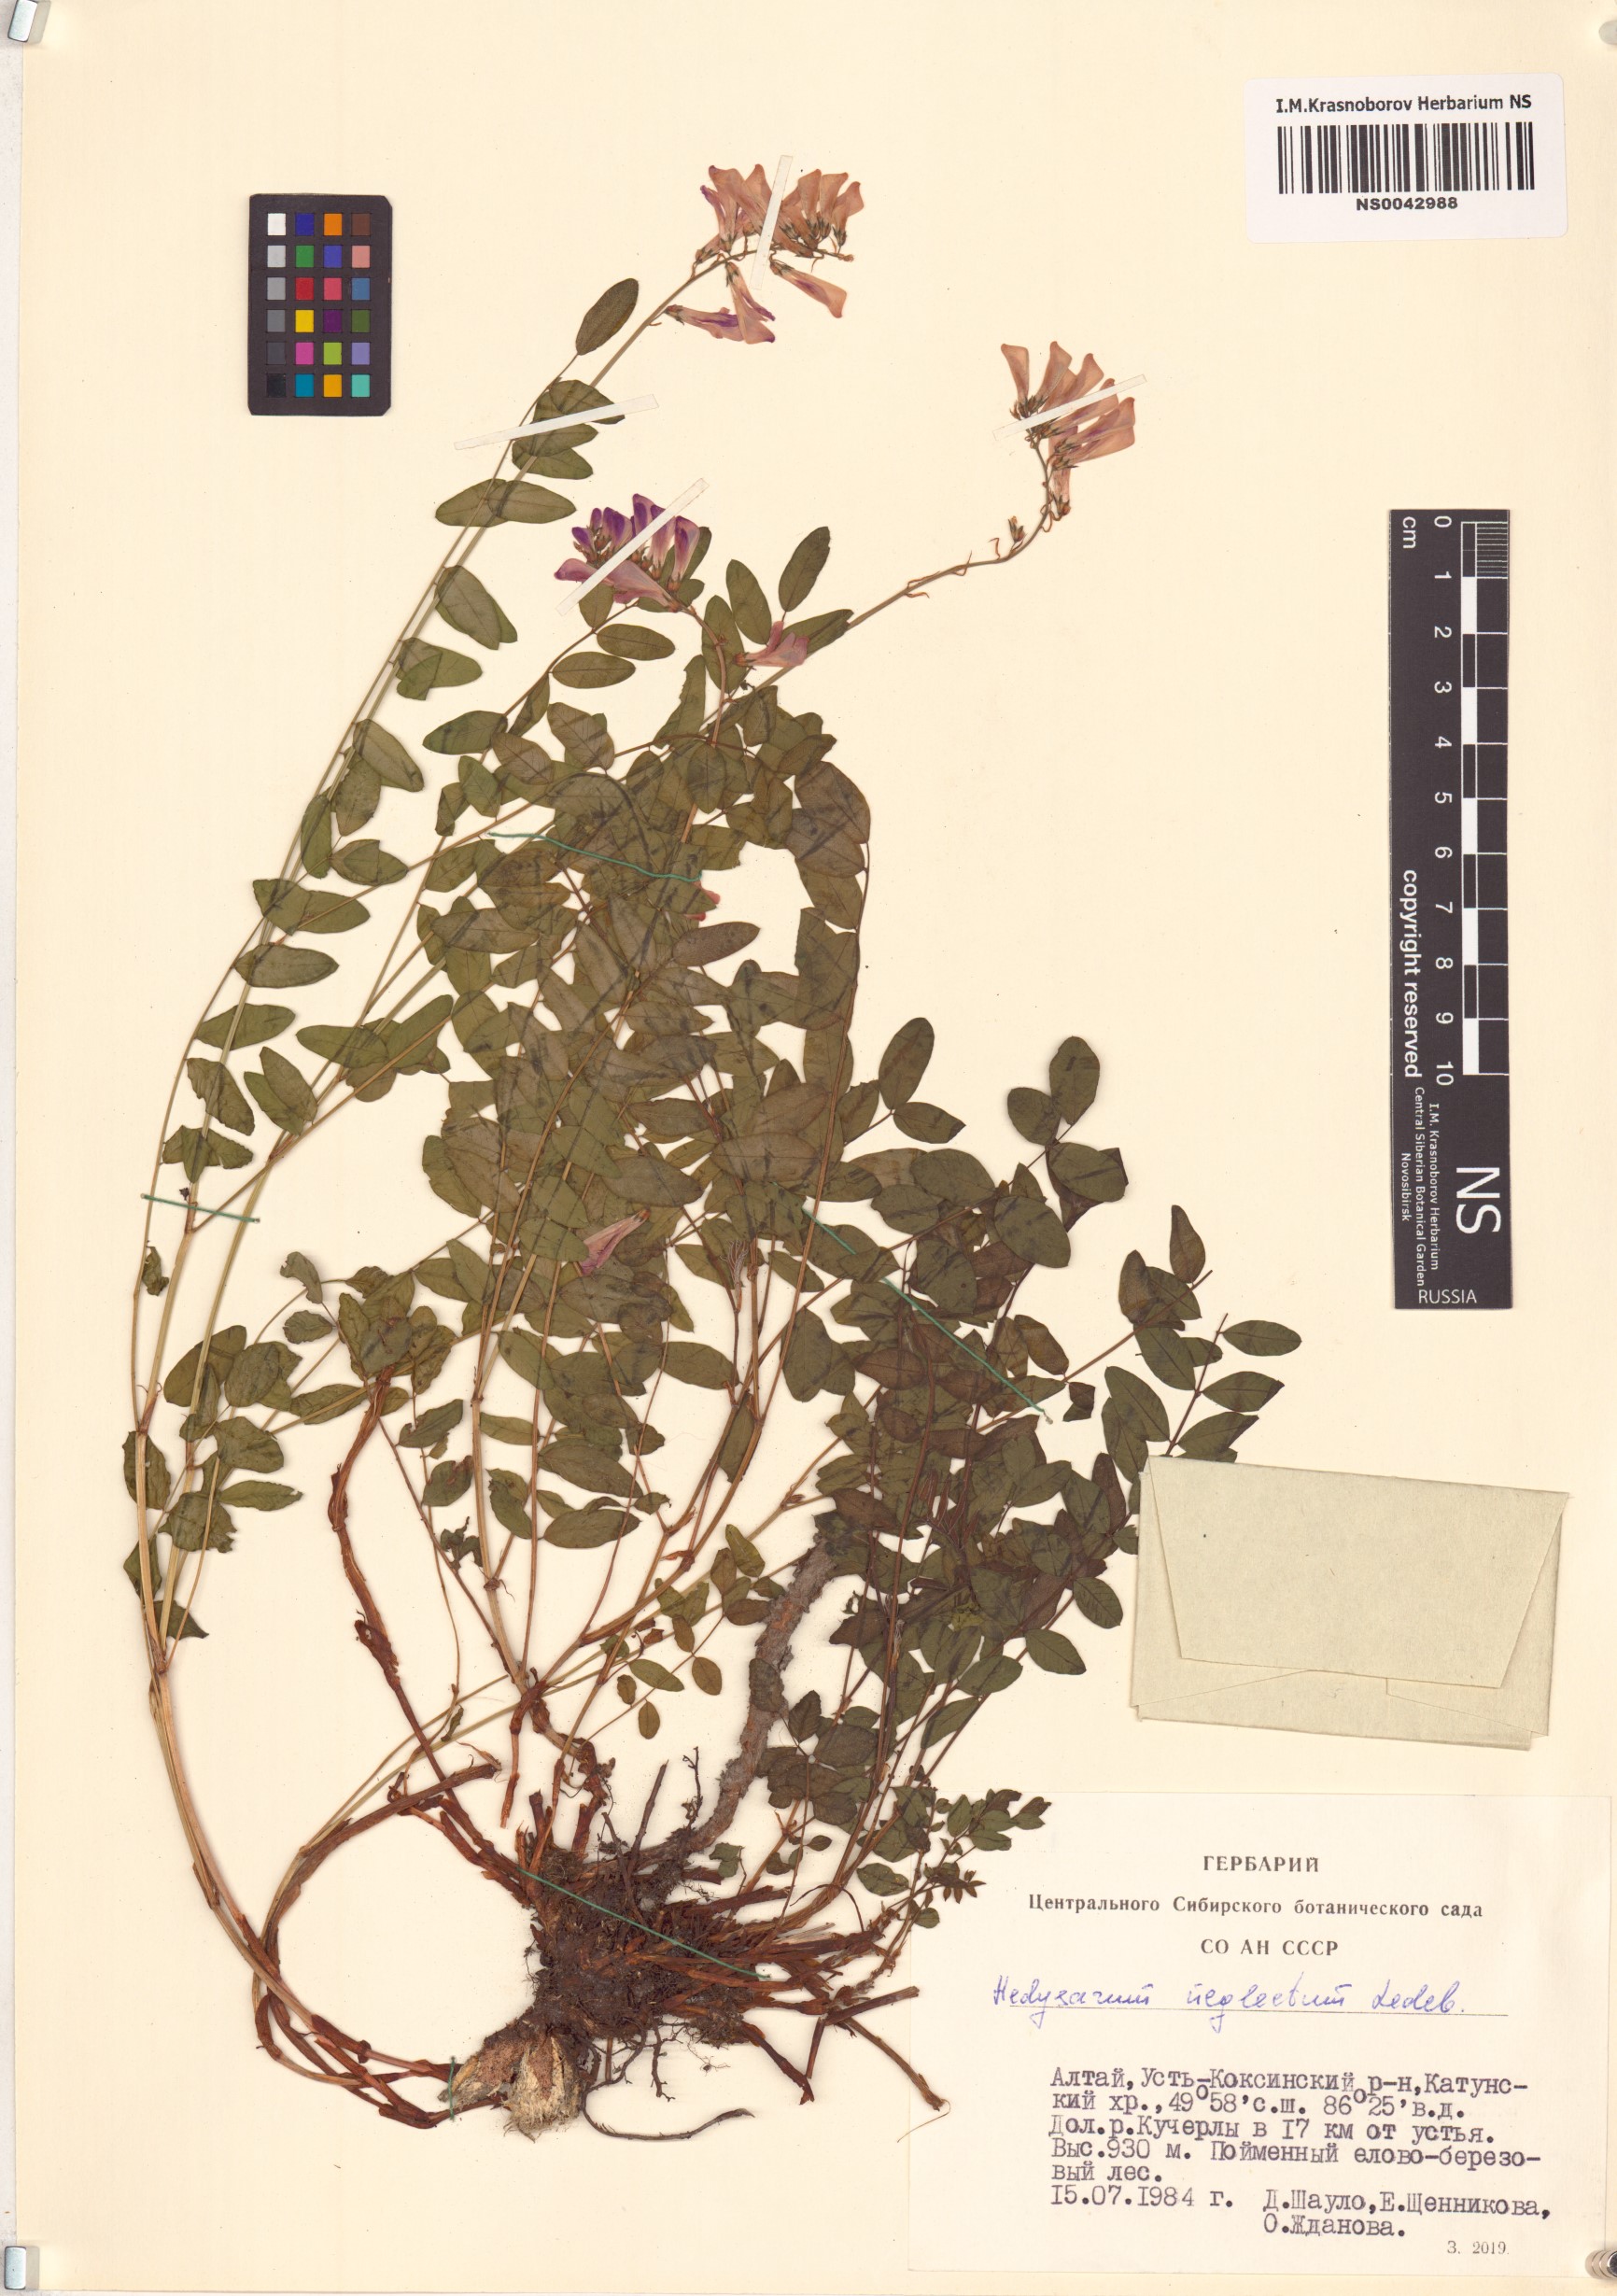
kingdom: Plantae
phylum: Tracheophyta
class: Magnoliopsida
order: Fabales
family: Fabaceae
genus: Hedysarum
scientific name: Hedysarum neglectum
